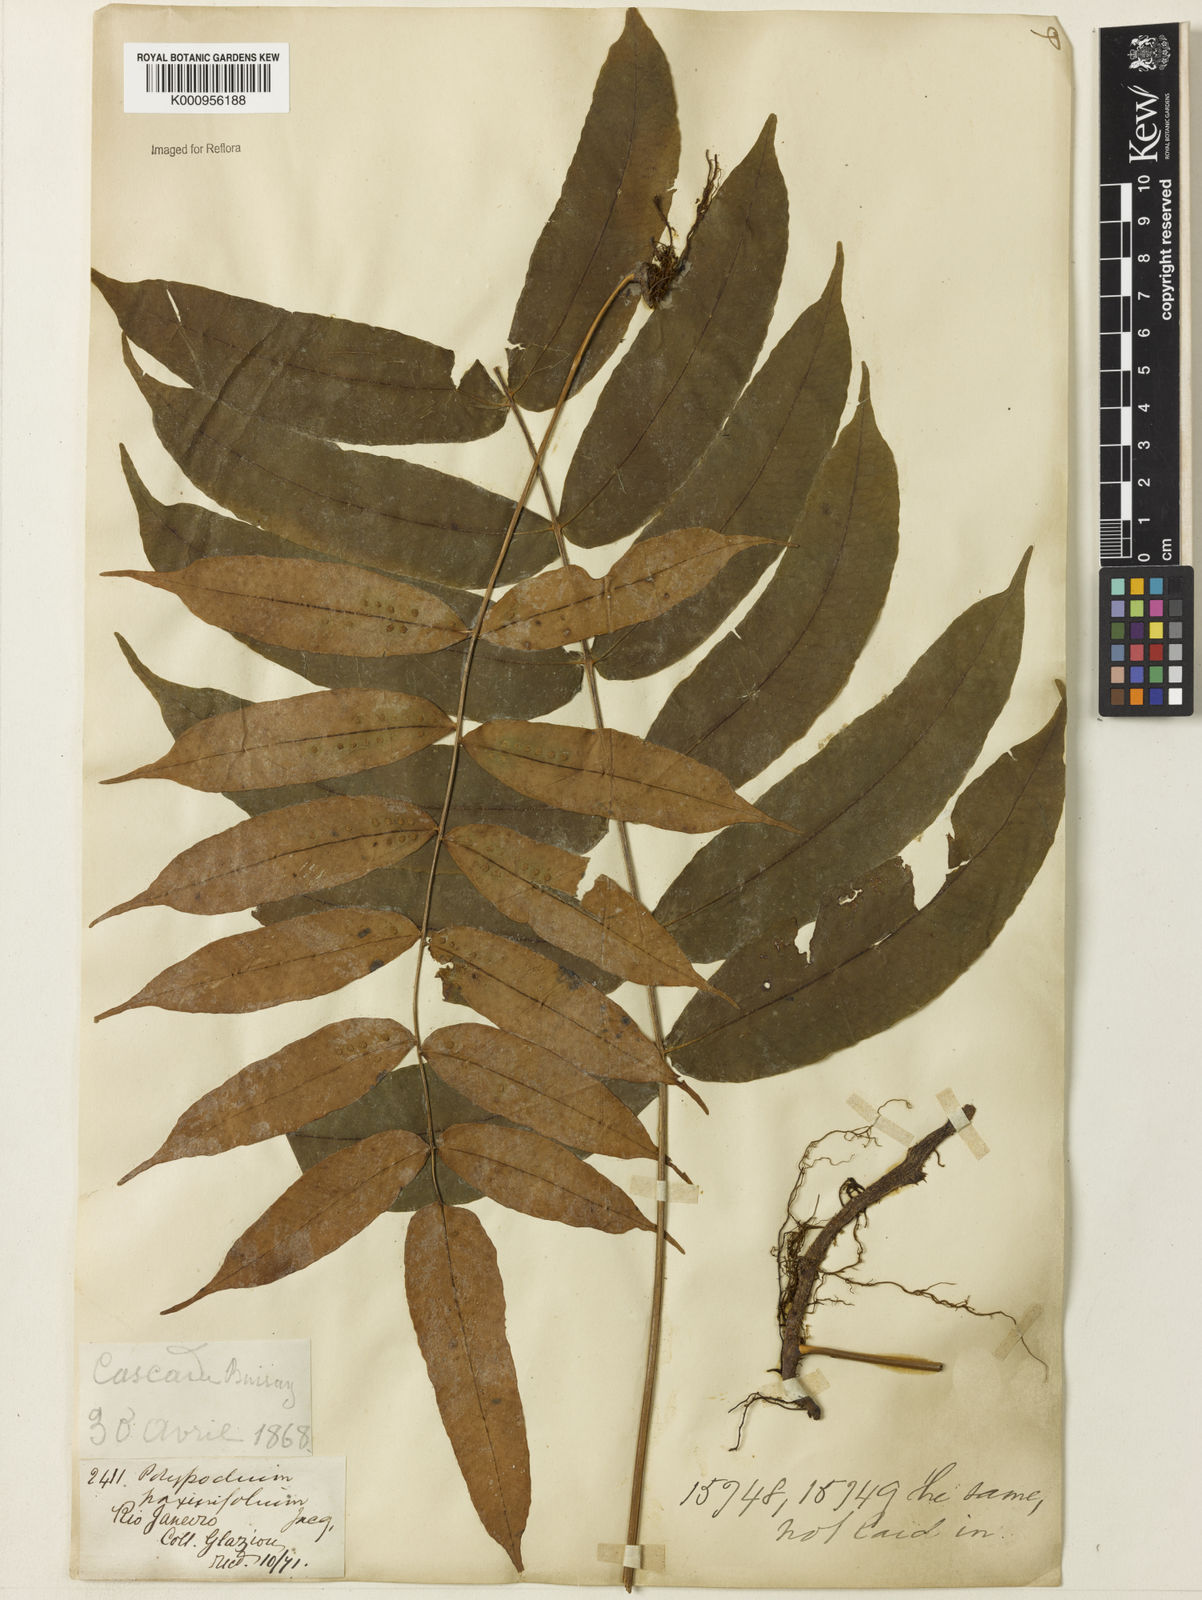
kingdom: Plantae
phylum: Tracheophyta
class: Polypodiopsida
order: Polypodiales
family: Polypodiaceae
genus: Serpocaulon
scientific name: Serpocaulon fraxinifolium
